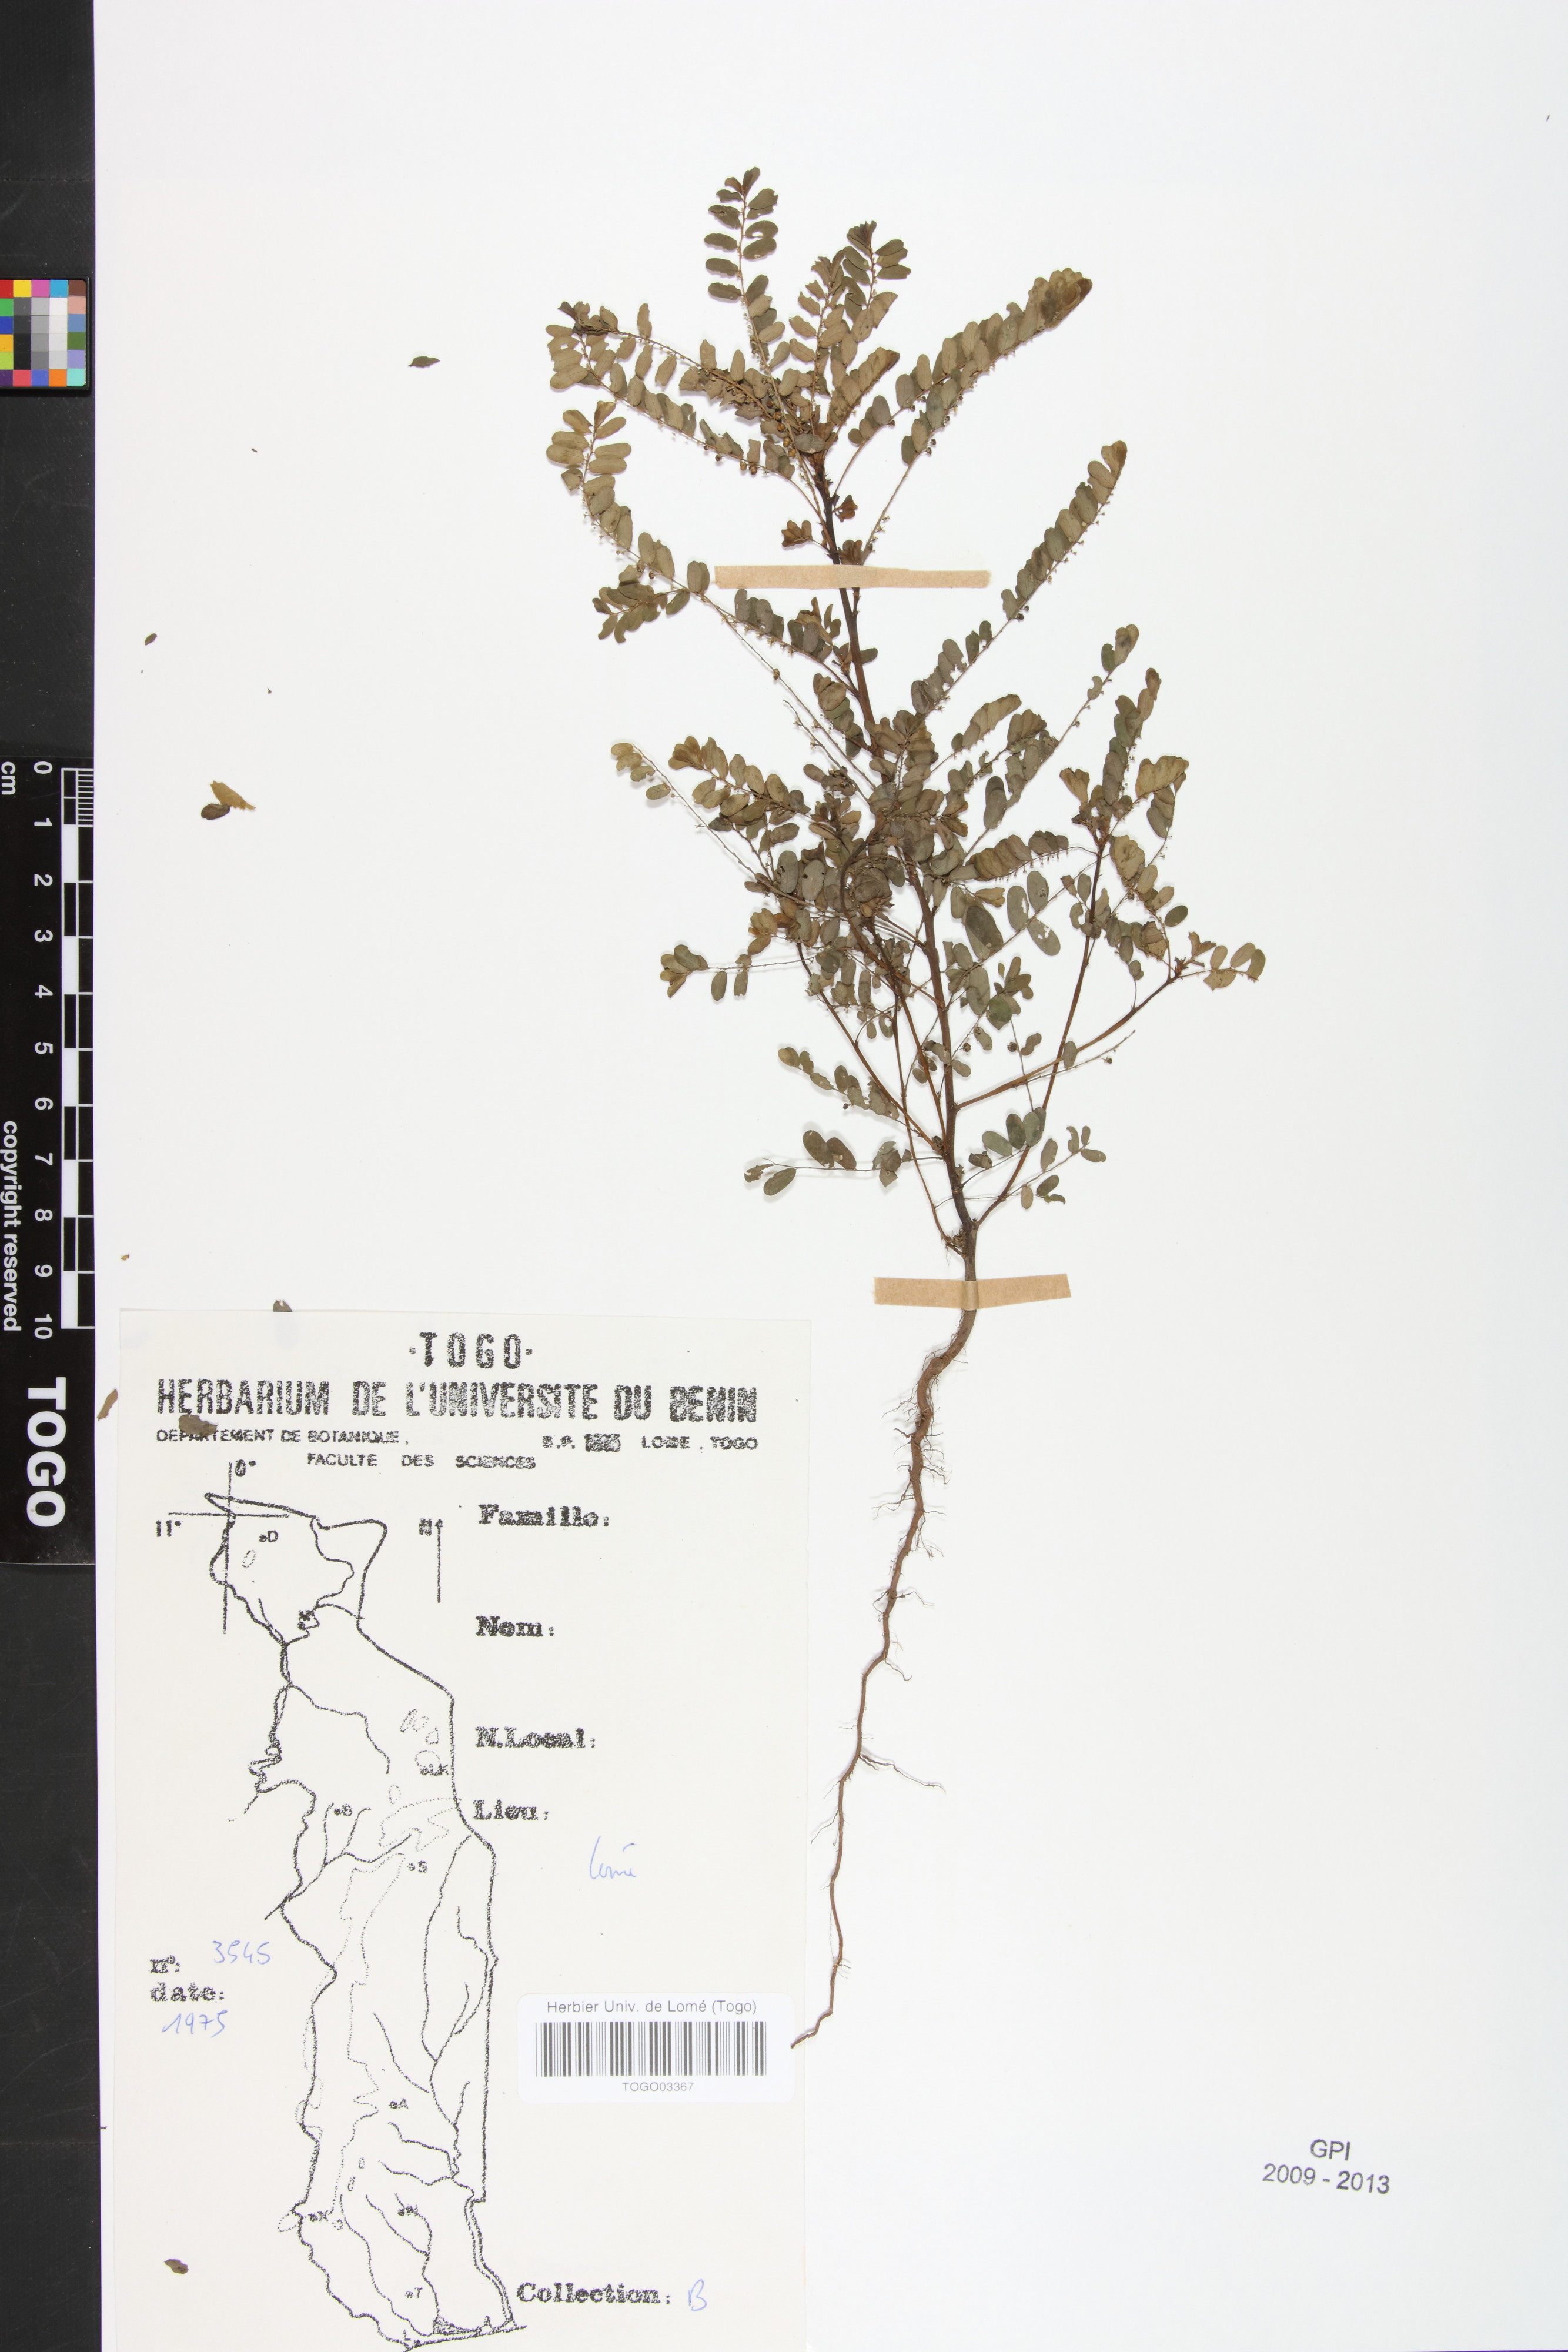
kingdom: Plantae
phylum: Tracheophyta
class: Magnoliopsida
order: Malpighiales
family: Phyllanthaceae
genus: Phyllanthus
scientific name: Phyllanthus amarus
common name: Carry me seed
